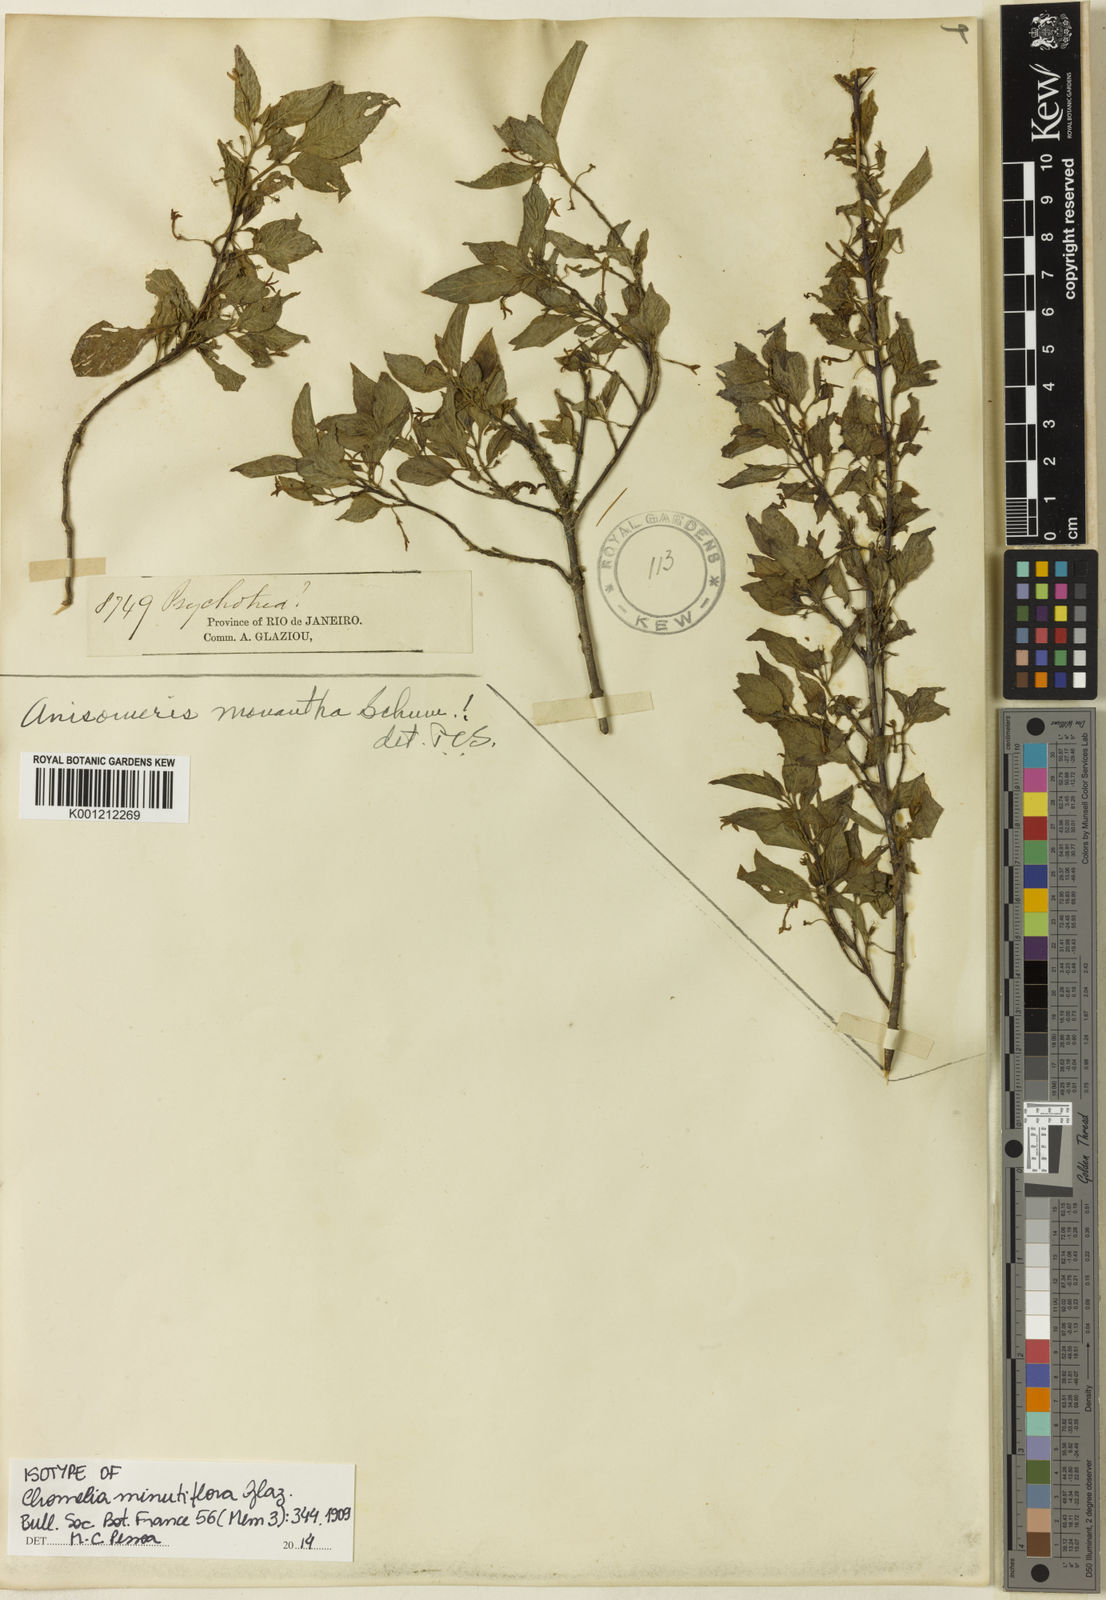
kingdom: Plantae
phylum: Tracheophyta
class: Magnoliopsida
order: Gentianales
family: Rubiaceae
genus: Chomelia
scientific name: Chomelia minutiflora
